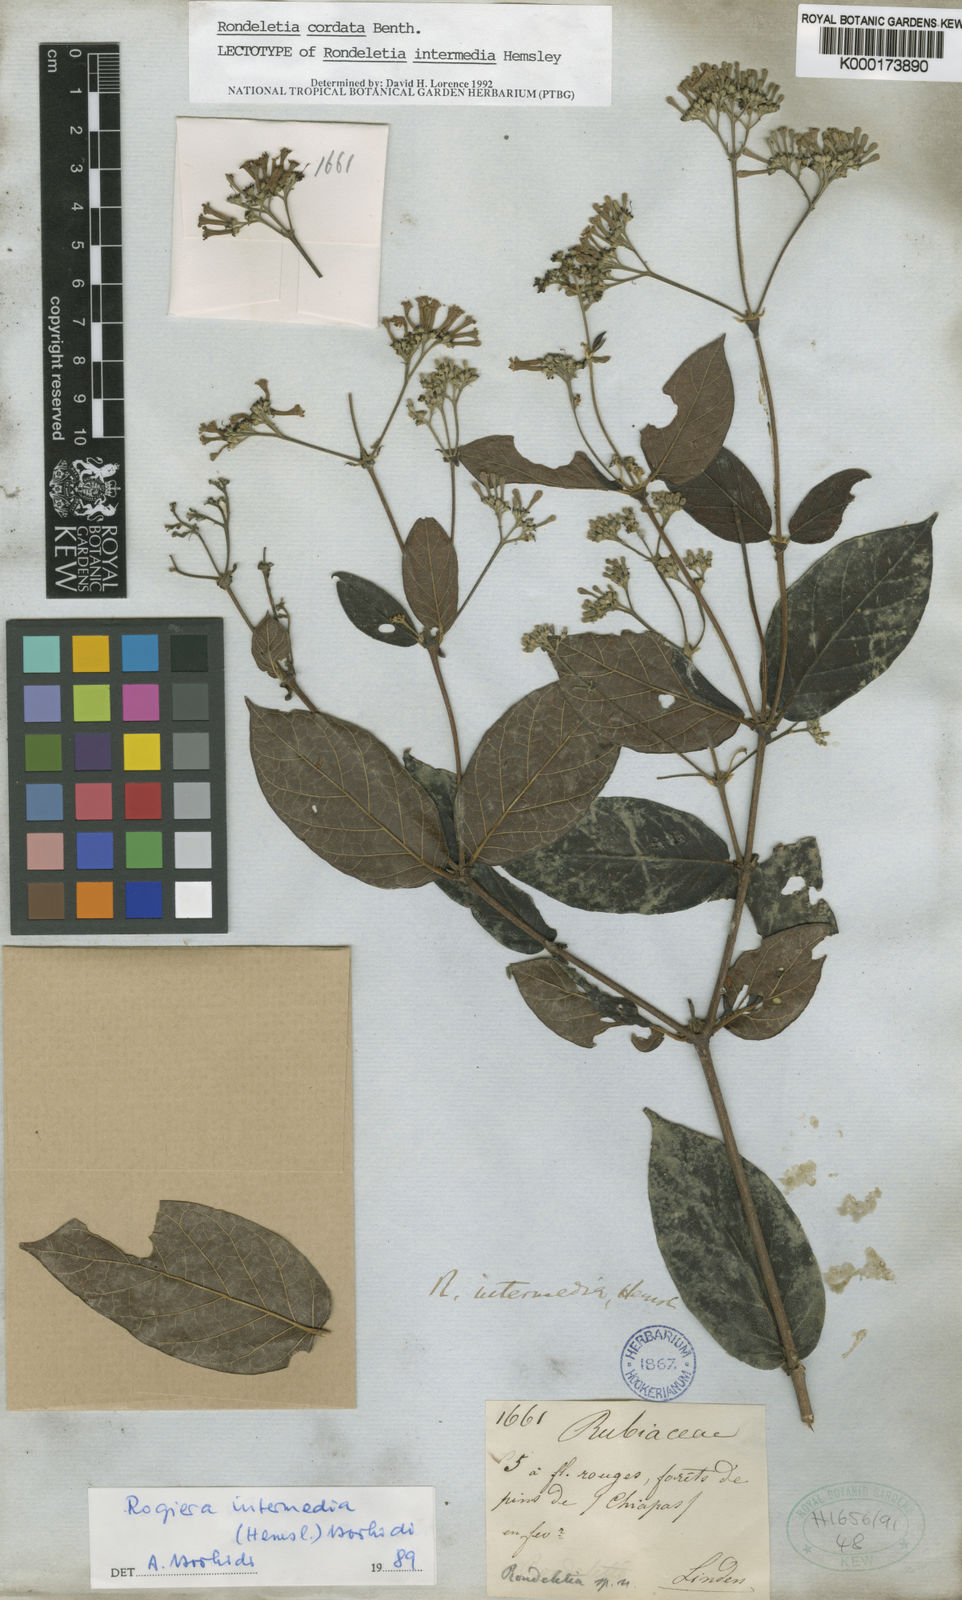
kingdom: Plantae
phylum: Tracheophyta
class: Magnoliopsida
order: Gentianales
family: Rubiaceae
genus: Rogiera
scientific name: Rogiera cordata
